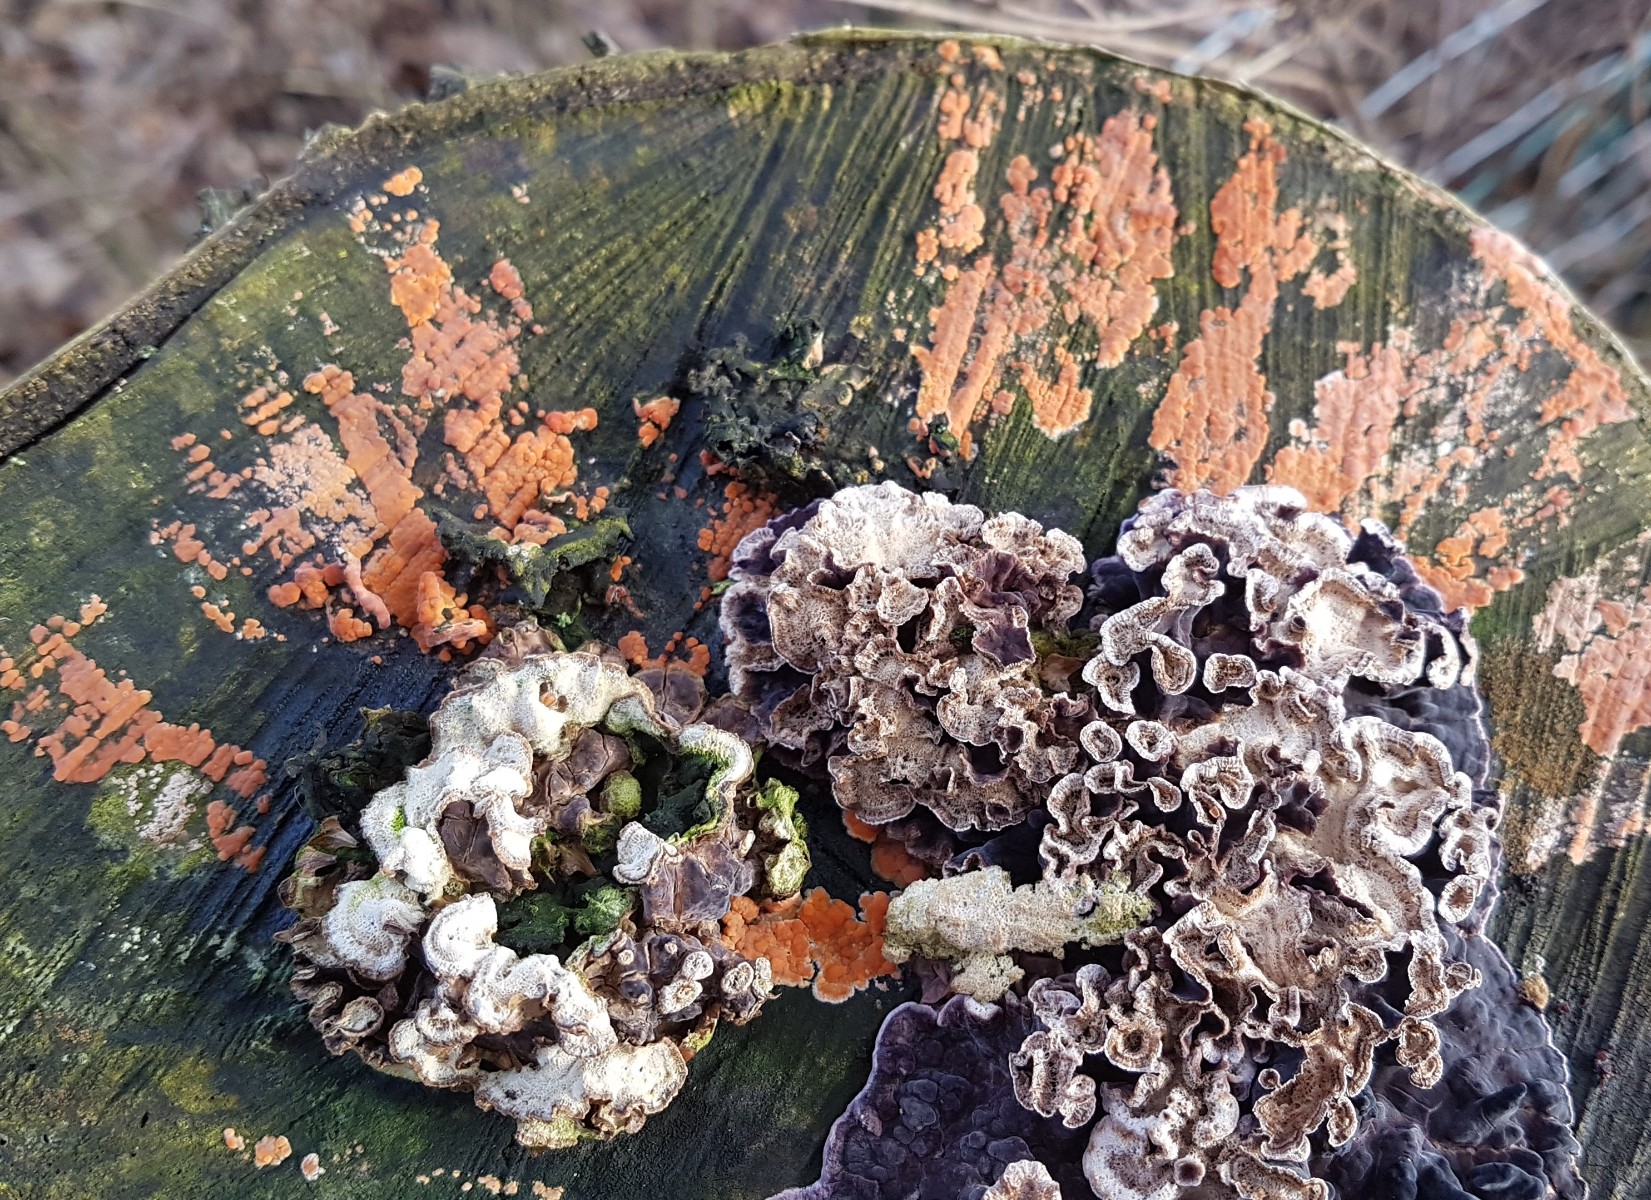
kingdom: Fungi
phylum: Basidiomycota
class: Agaricomycetes
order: Russulales
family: Peniophoraceae
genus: Peniophora
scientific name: Peniophora incarnata
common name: laksefarvet voksskind
